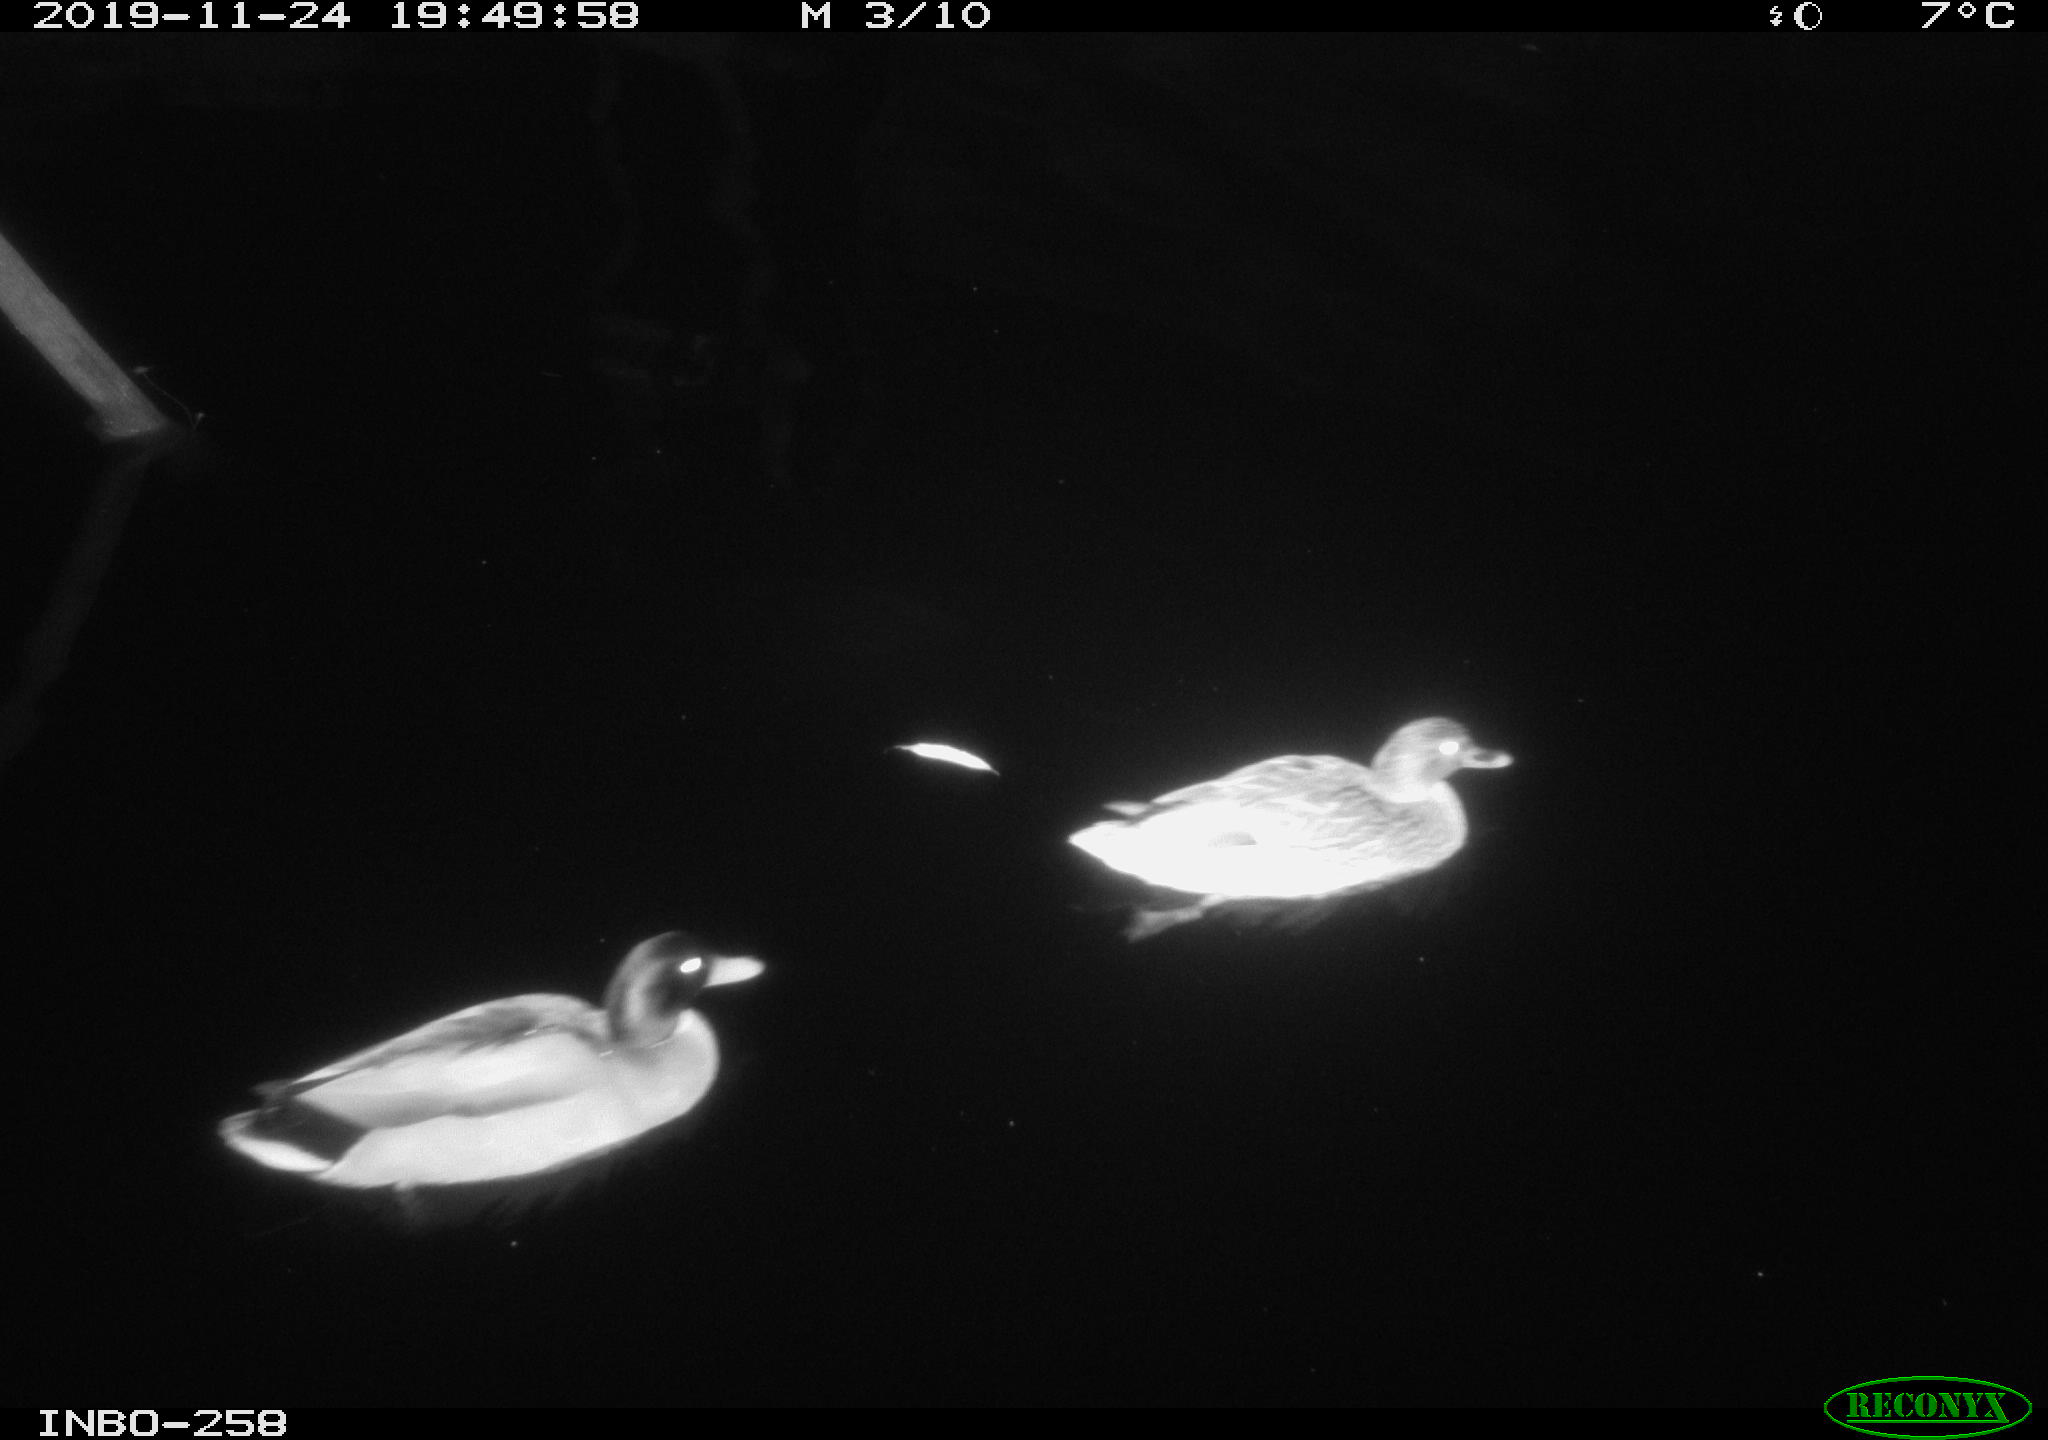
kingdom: Animalia
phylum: Chordata
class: Aves
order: Anseriformes
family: Anatidae
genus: Anas
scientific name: Anas platyrhynchos
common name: Mallard
